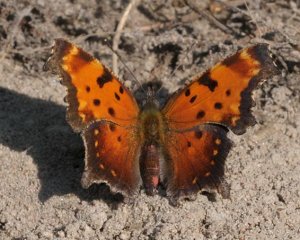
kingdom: Animalia
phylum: Arthropoda
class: Insecta
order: Lepidoptera
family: Nymphalidae
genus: Polygonia
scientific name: Polygonia progne
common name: Gray Comma
